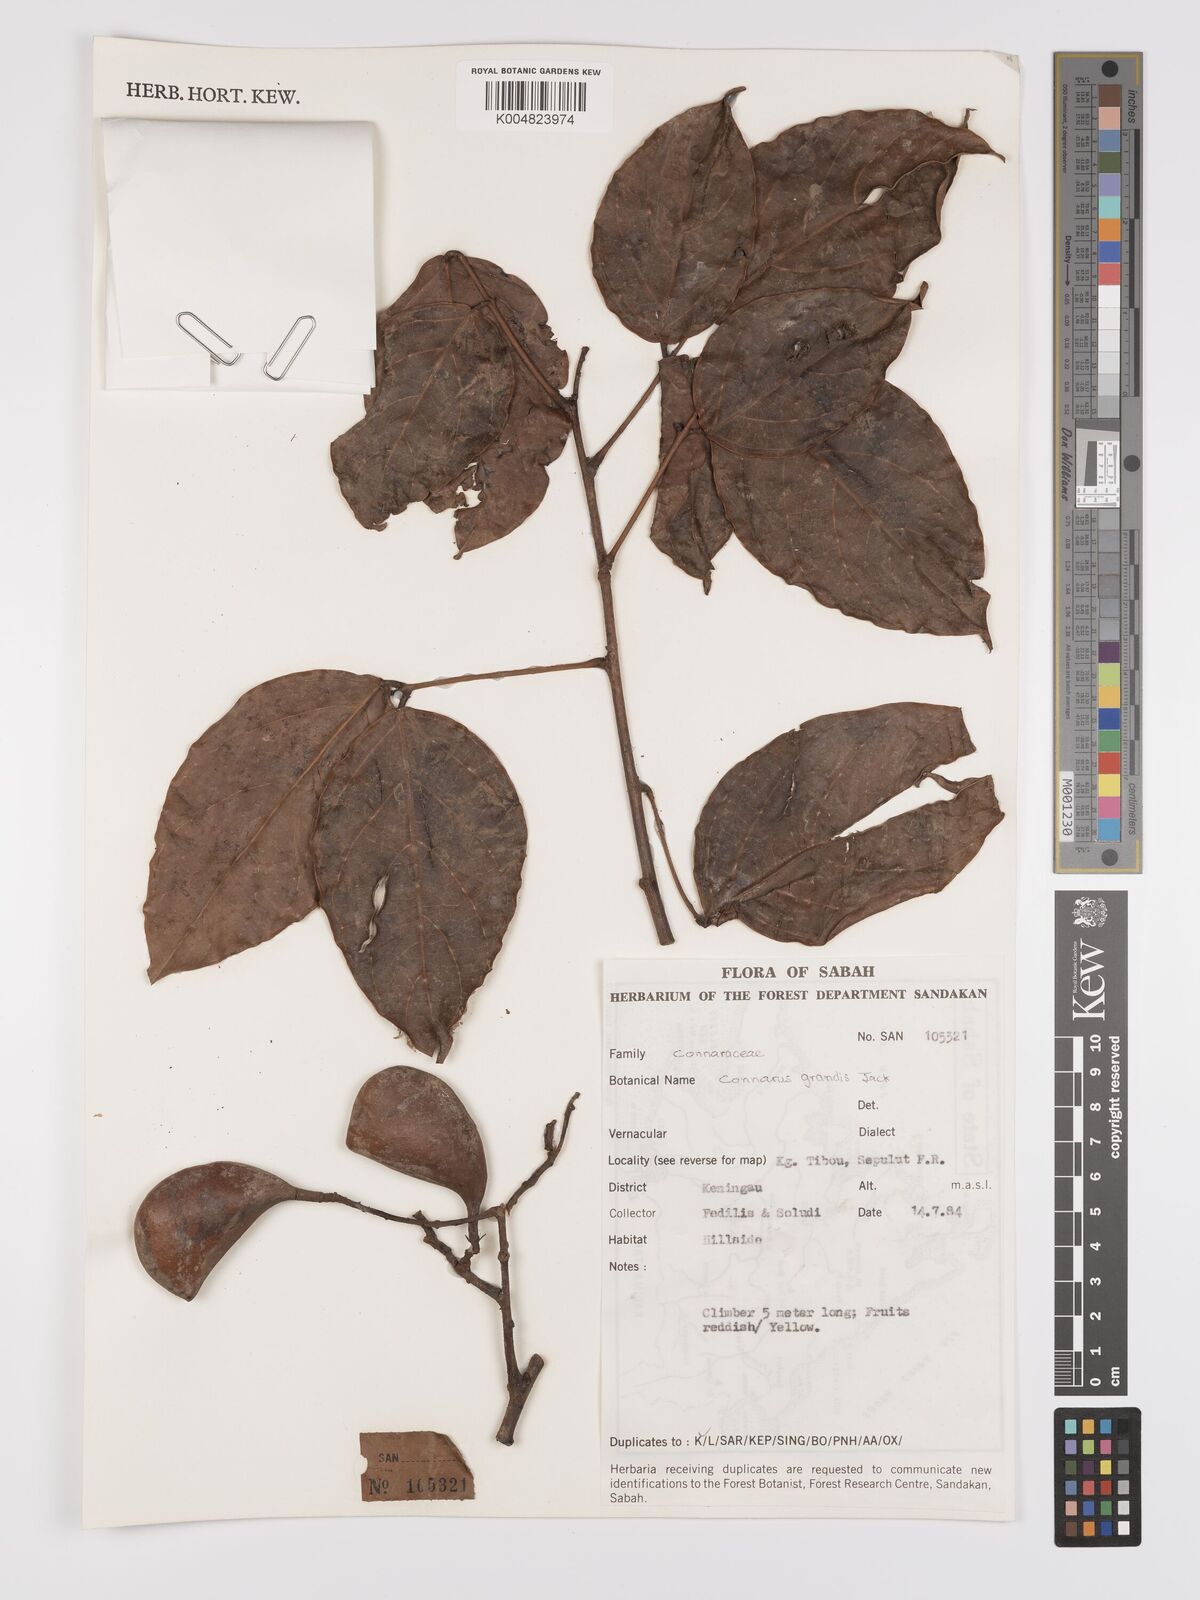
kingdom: Plantae
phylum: Tracheophyta
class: Magnoliopsida
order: Oxalidales
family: Connaraceae
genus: Connarus
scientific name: Connarus grandis
